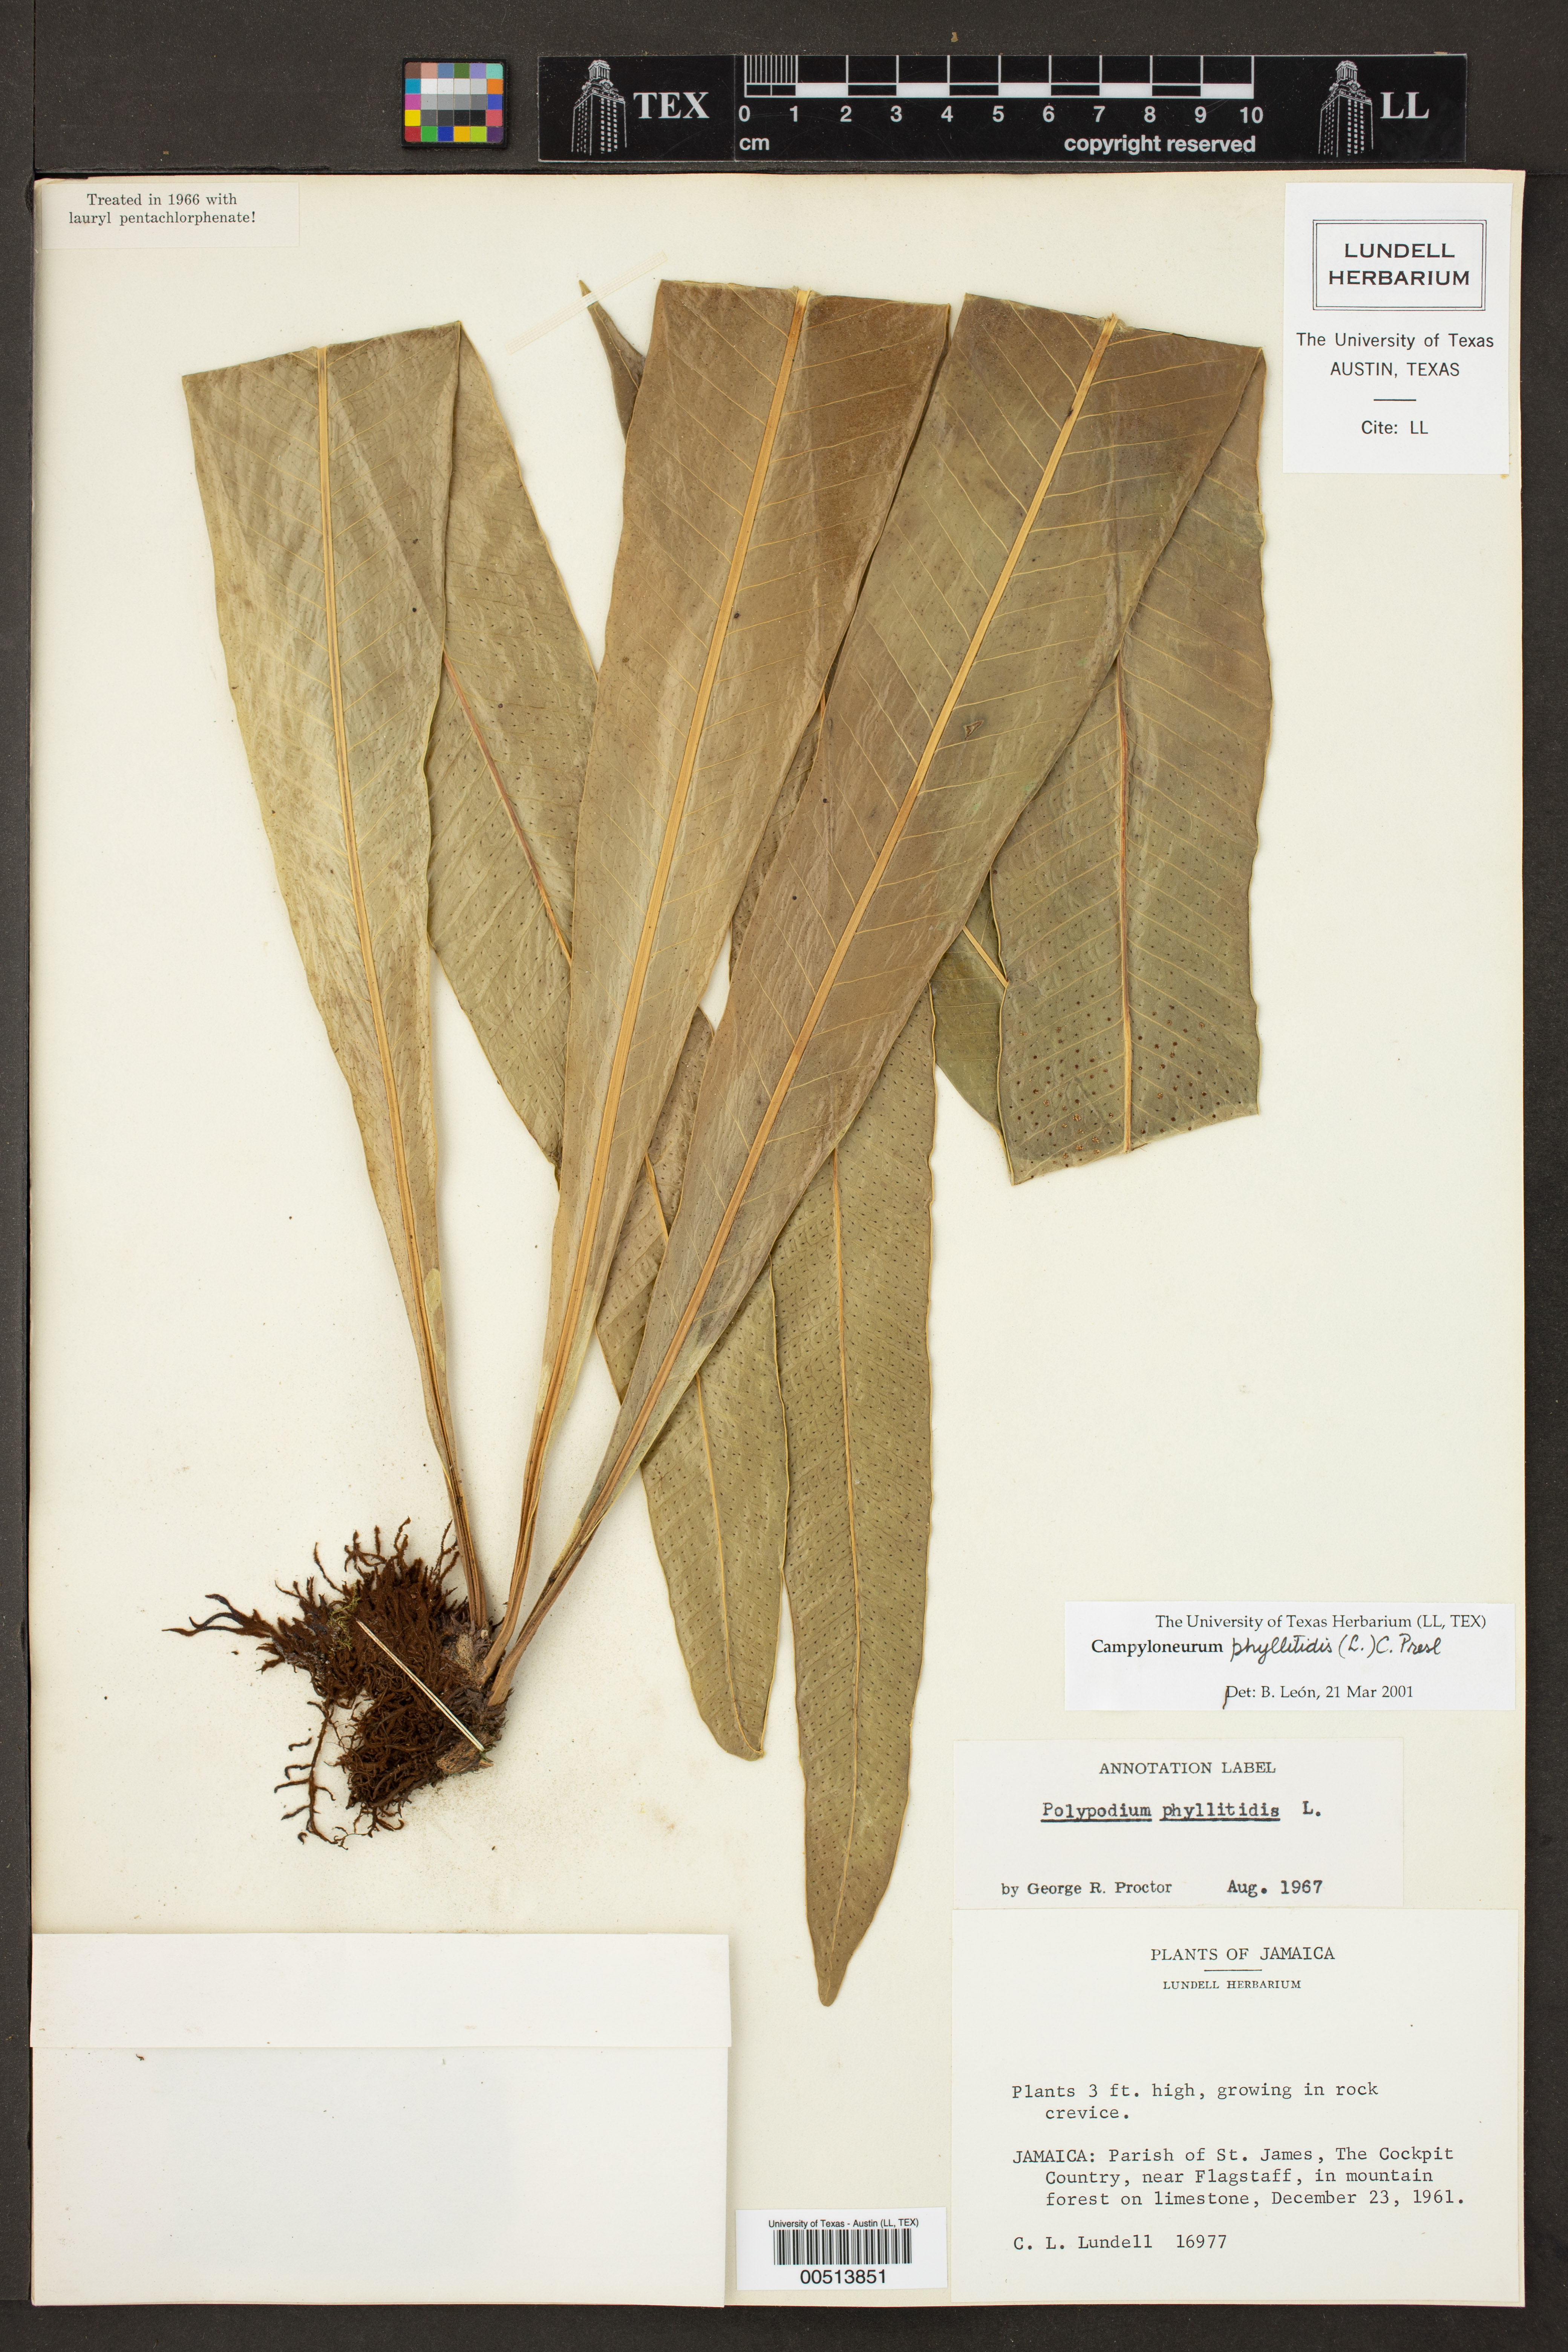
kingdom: Plantae
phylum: Tracheophyta
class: Polypodiopsida
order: Polypodiales
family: Polypodiaceae
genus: Campyloneurum
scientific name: Campyloneurum phyllitidis
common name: Cow-tongue fern
